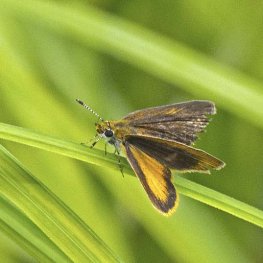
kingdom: Animalia
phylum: Arthropoda
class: Insecta
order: Lepidoptera
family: Hesperiidae
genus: Ancyloxypha
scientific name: Ancyloxypha numitor
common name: Least Skipper
